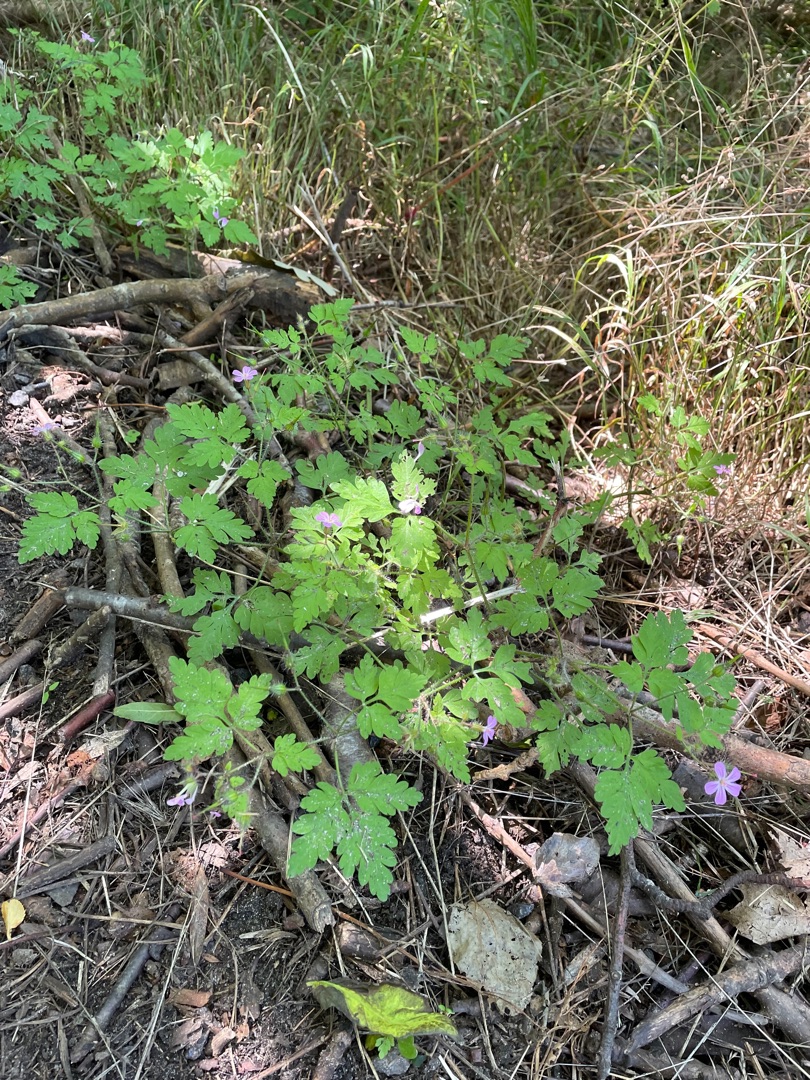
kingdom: Plantae
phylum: Tracheophyta
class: Magnoliopsida
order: Geraniales
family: Geraniaceae
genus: Geranium
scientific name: Geranium robertianum
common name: Stinkende storkenæb
